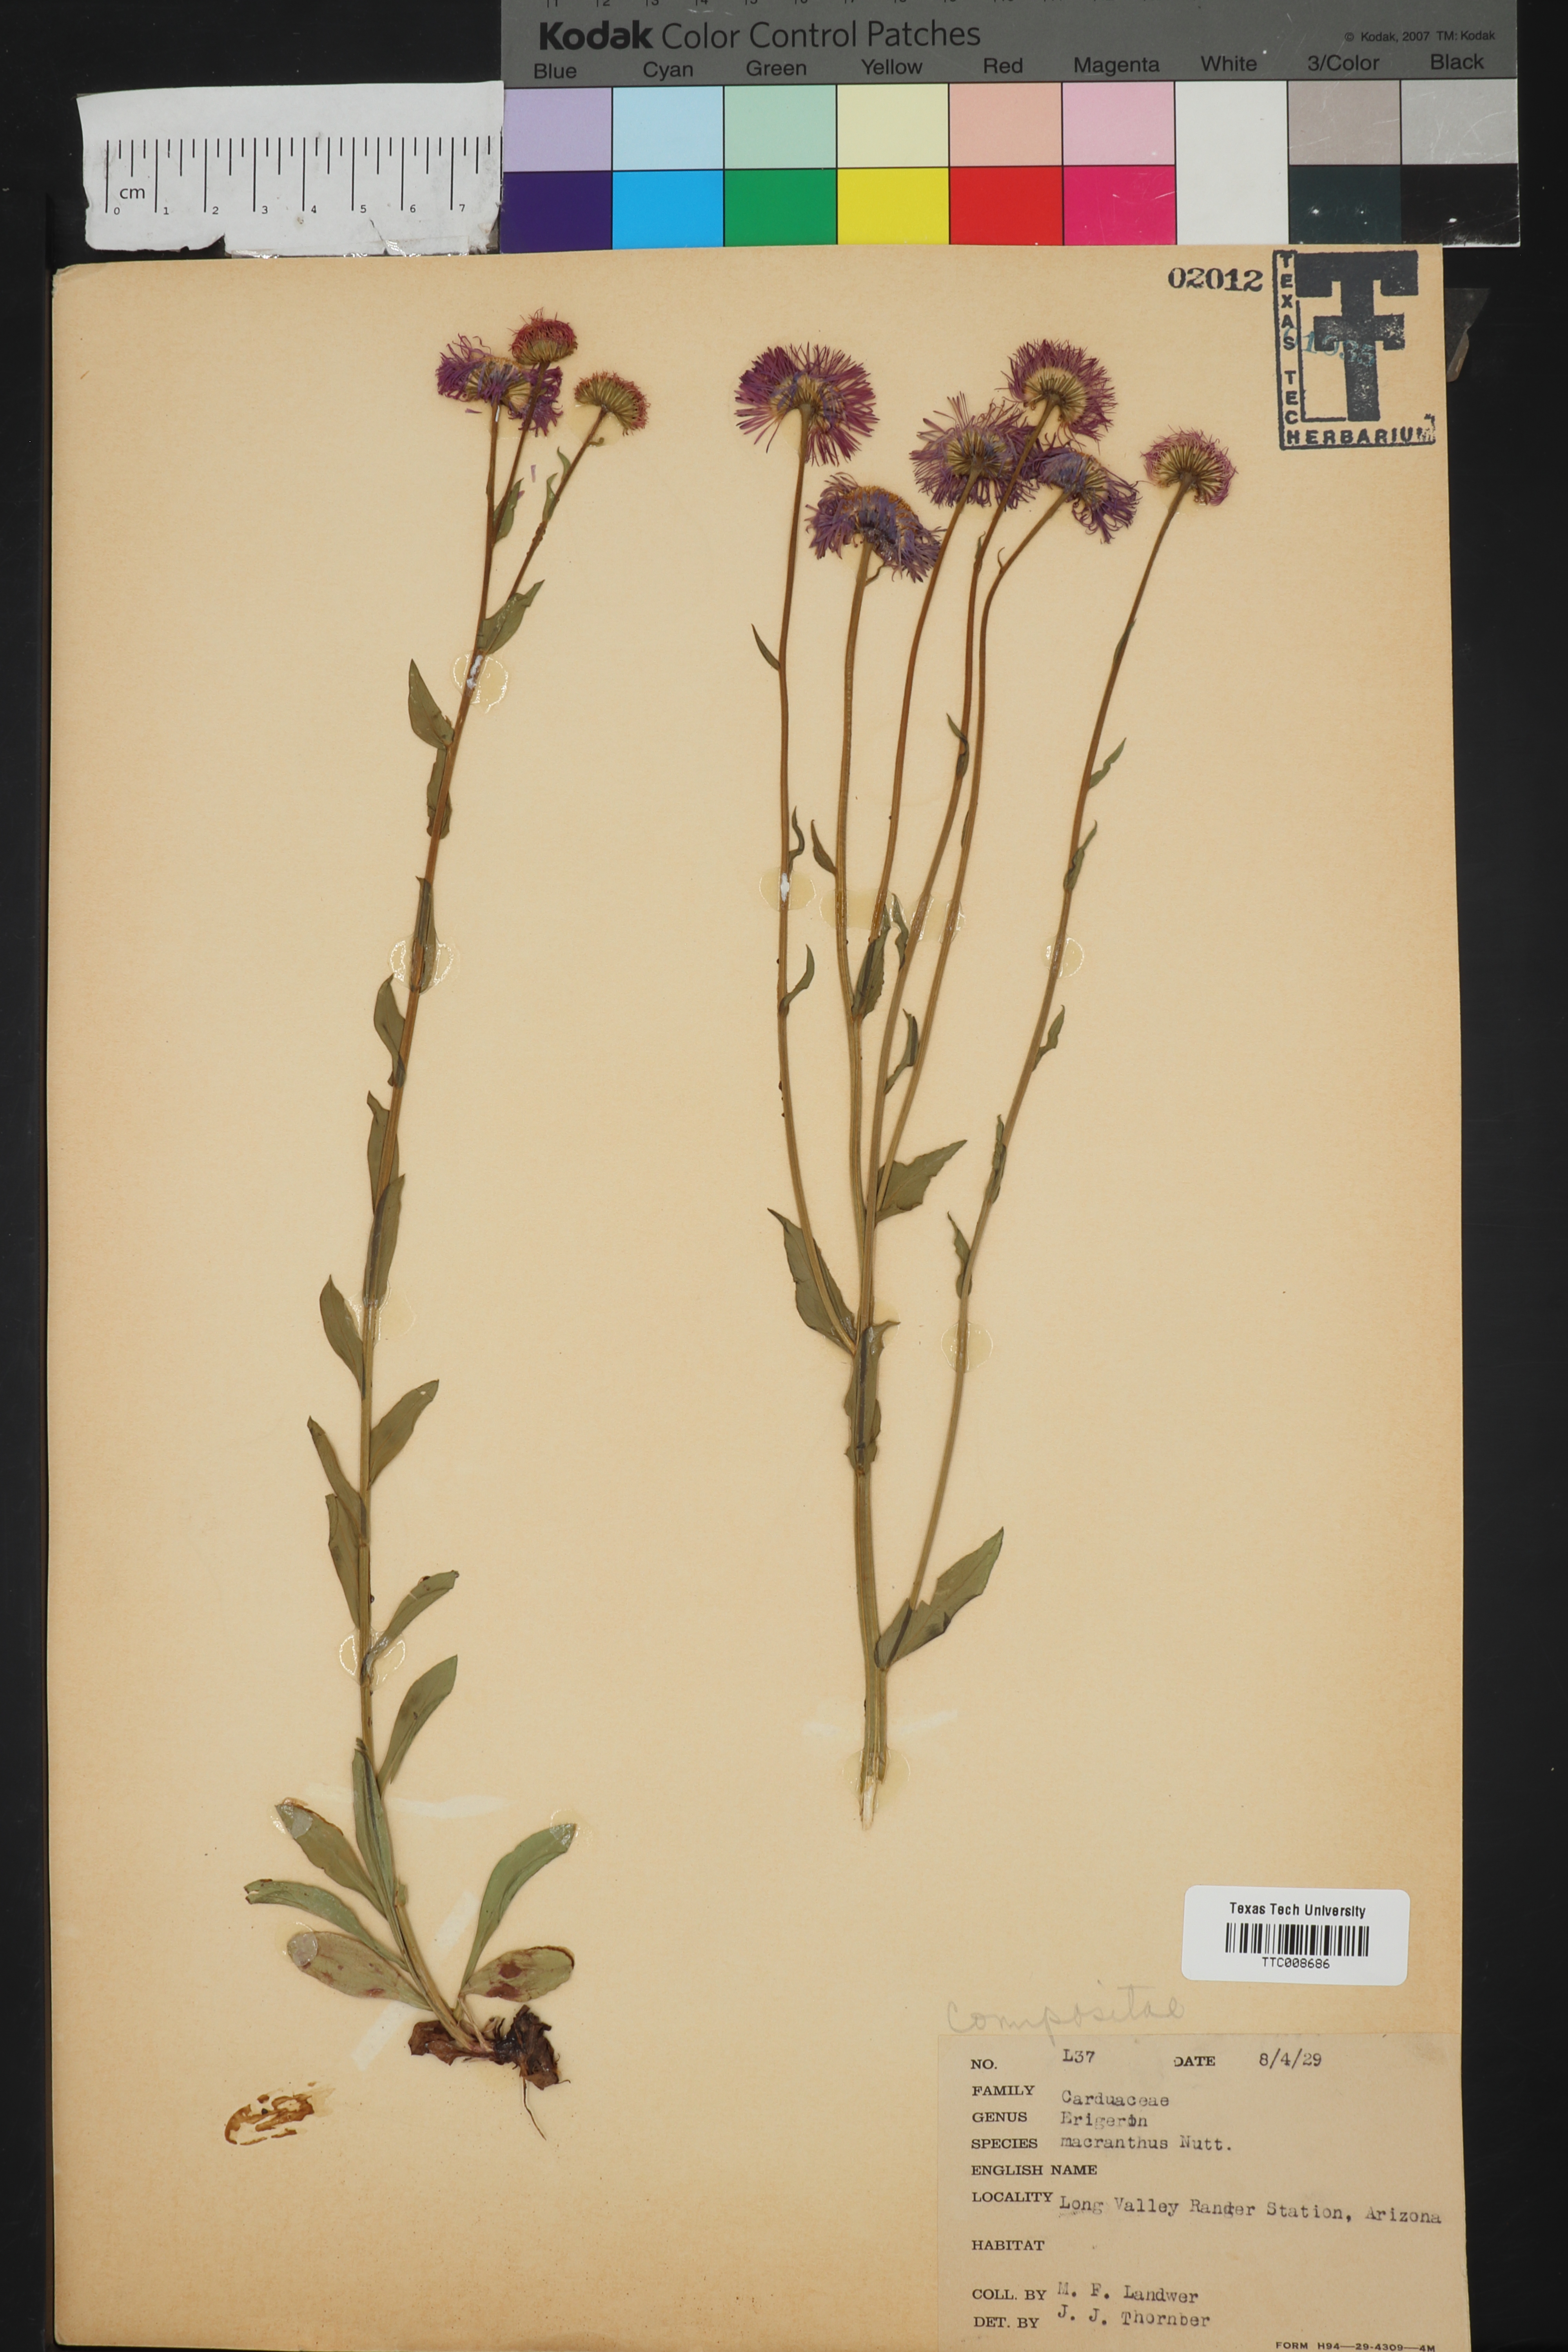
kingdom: Plantae
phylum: Tracheophyta
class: Magnoliopsida
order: Asterales
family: Asteraceae
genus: Erigeron
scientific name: Erigeron speciosus
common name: Aspen fleabane
